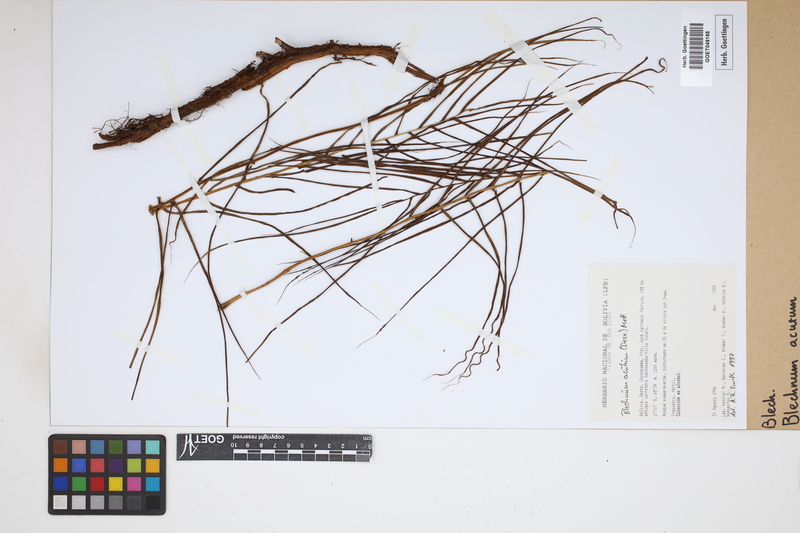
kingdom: Plantae
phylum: Tracheophyta
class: Polypodiopsida
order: Polypodiales
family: Blechnaceae
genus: Lomaridium
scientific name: Lomaridium acutum
